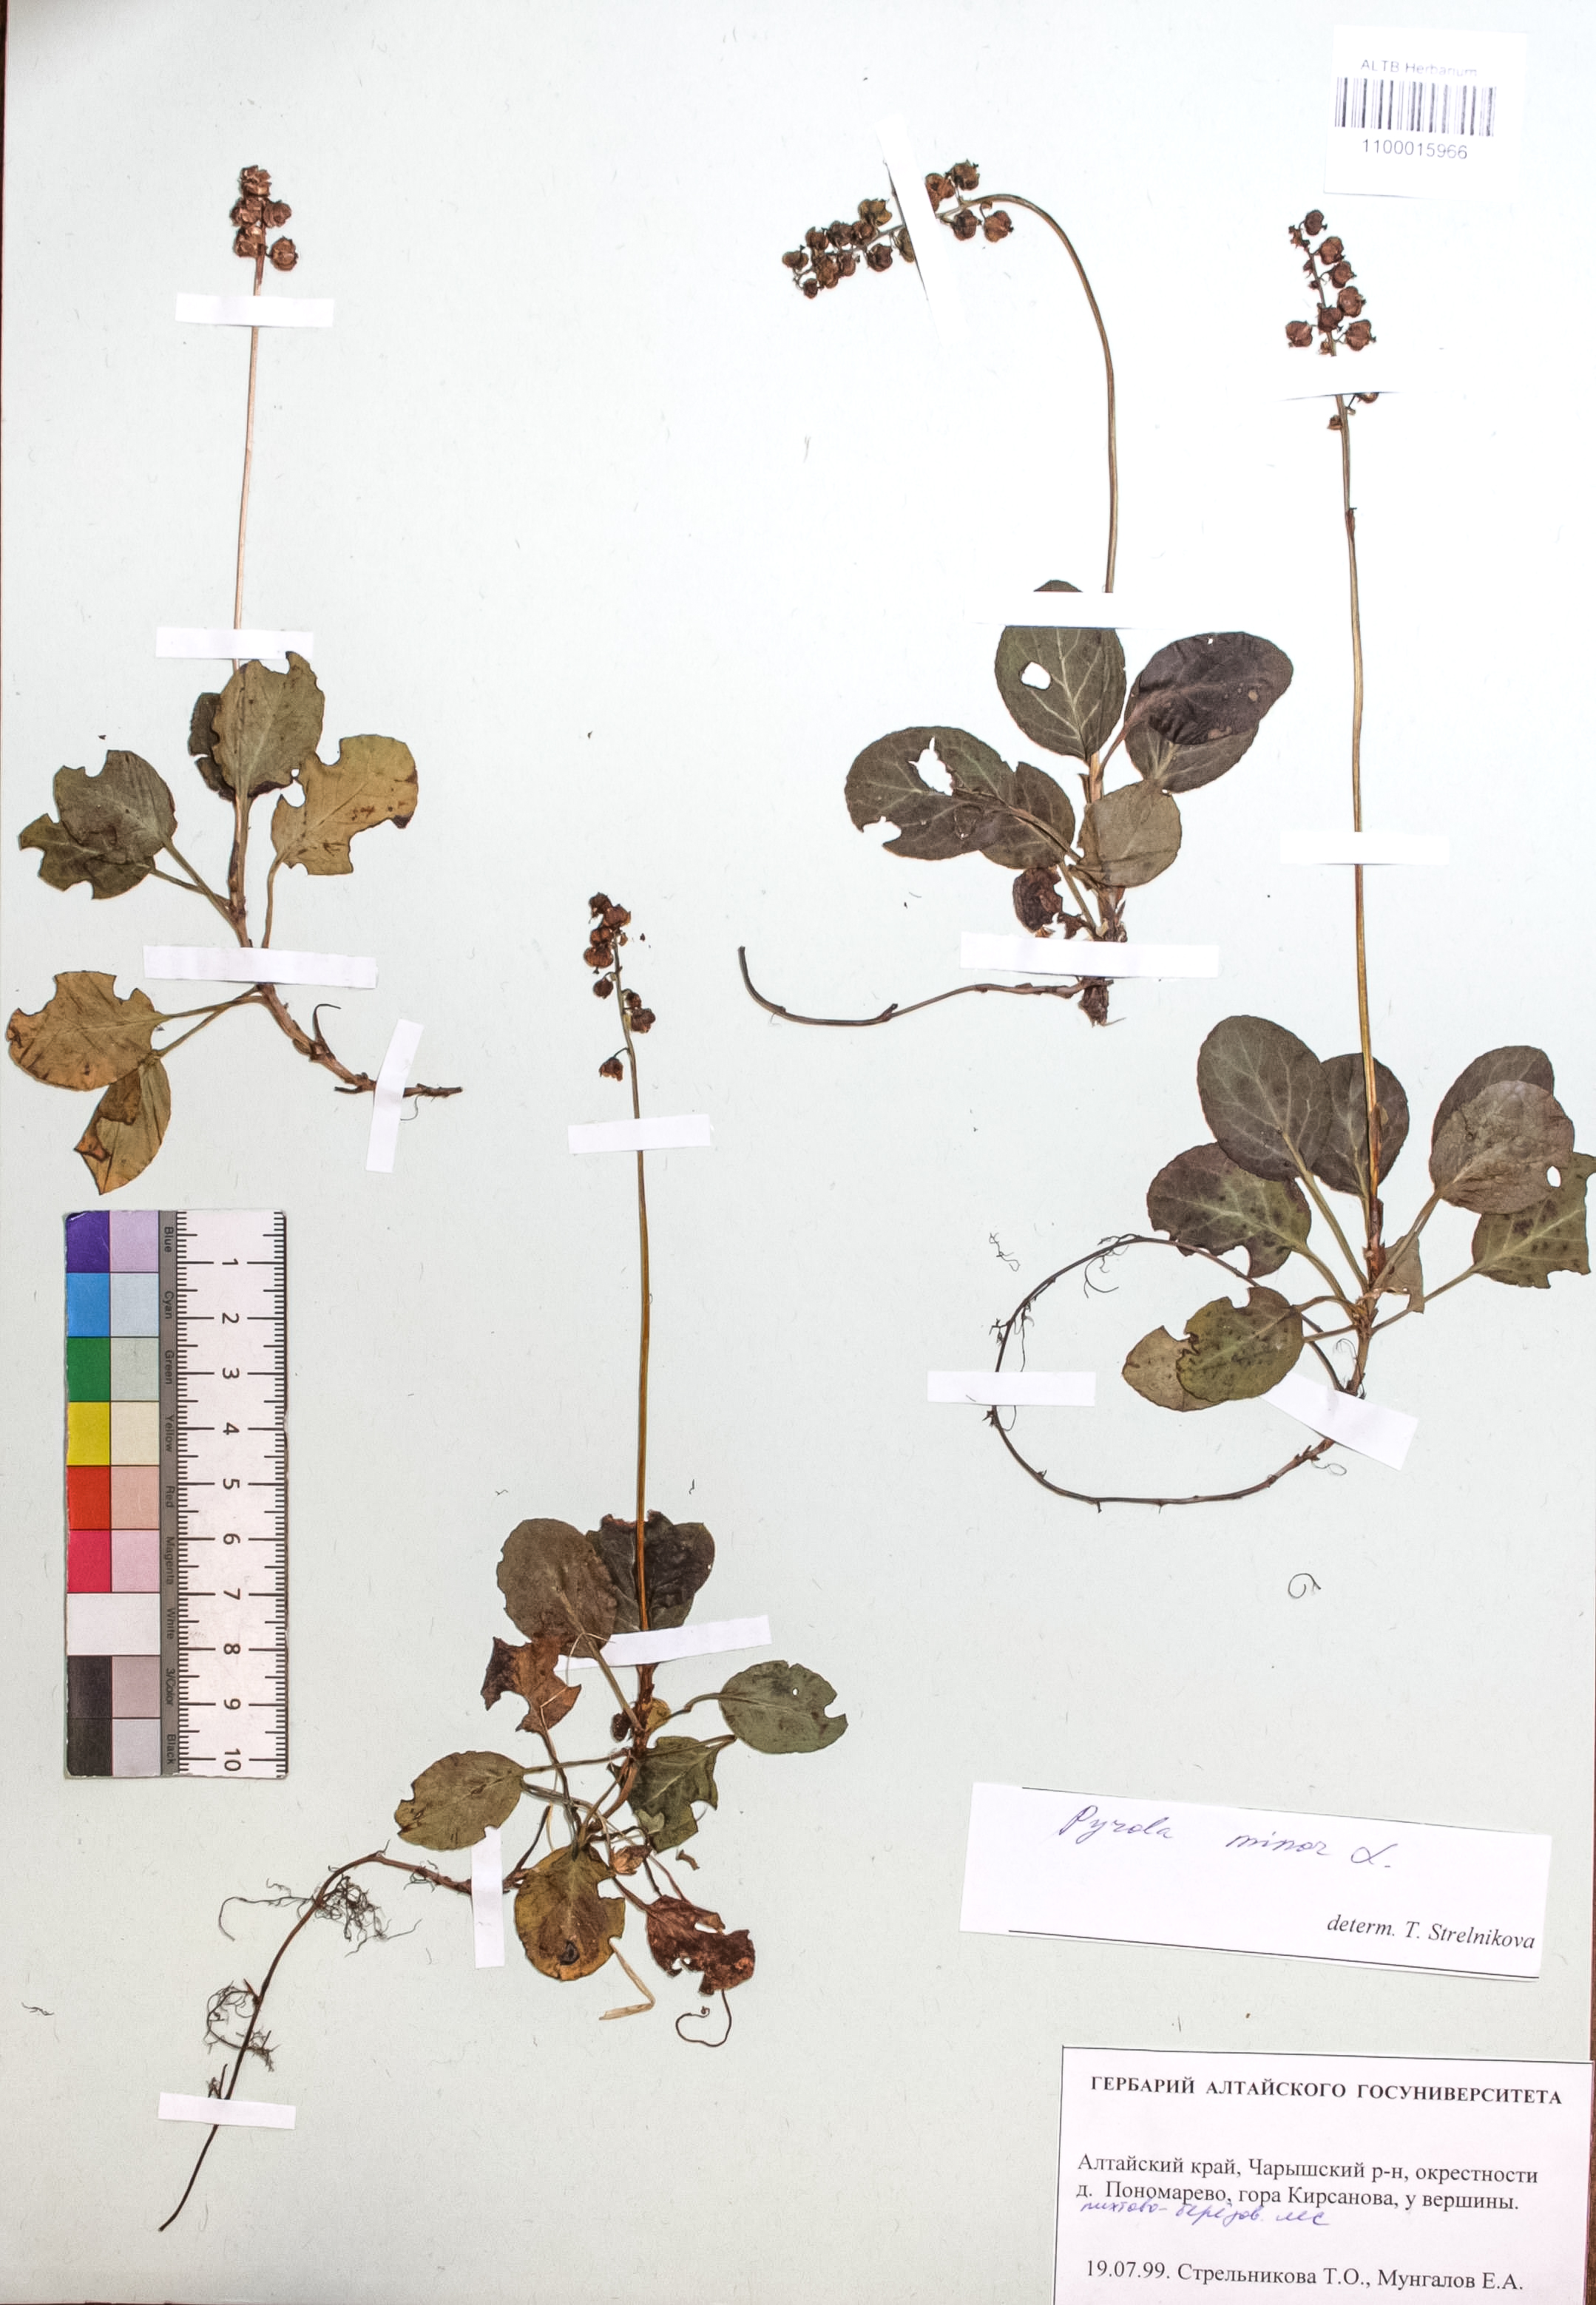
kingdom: Plantae
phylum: Tracheophyta
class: Magnoliopsida
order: Ericales
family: Ericaceae
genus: Pyrola
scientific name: Pyrola minor
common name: Common wintergreen
